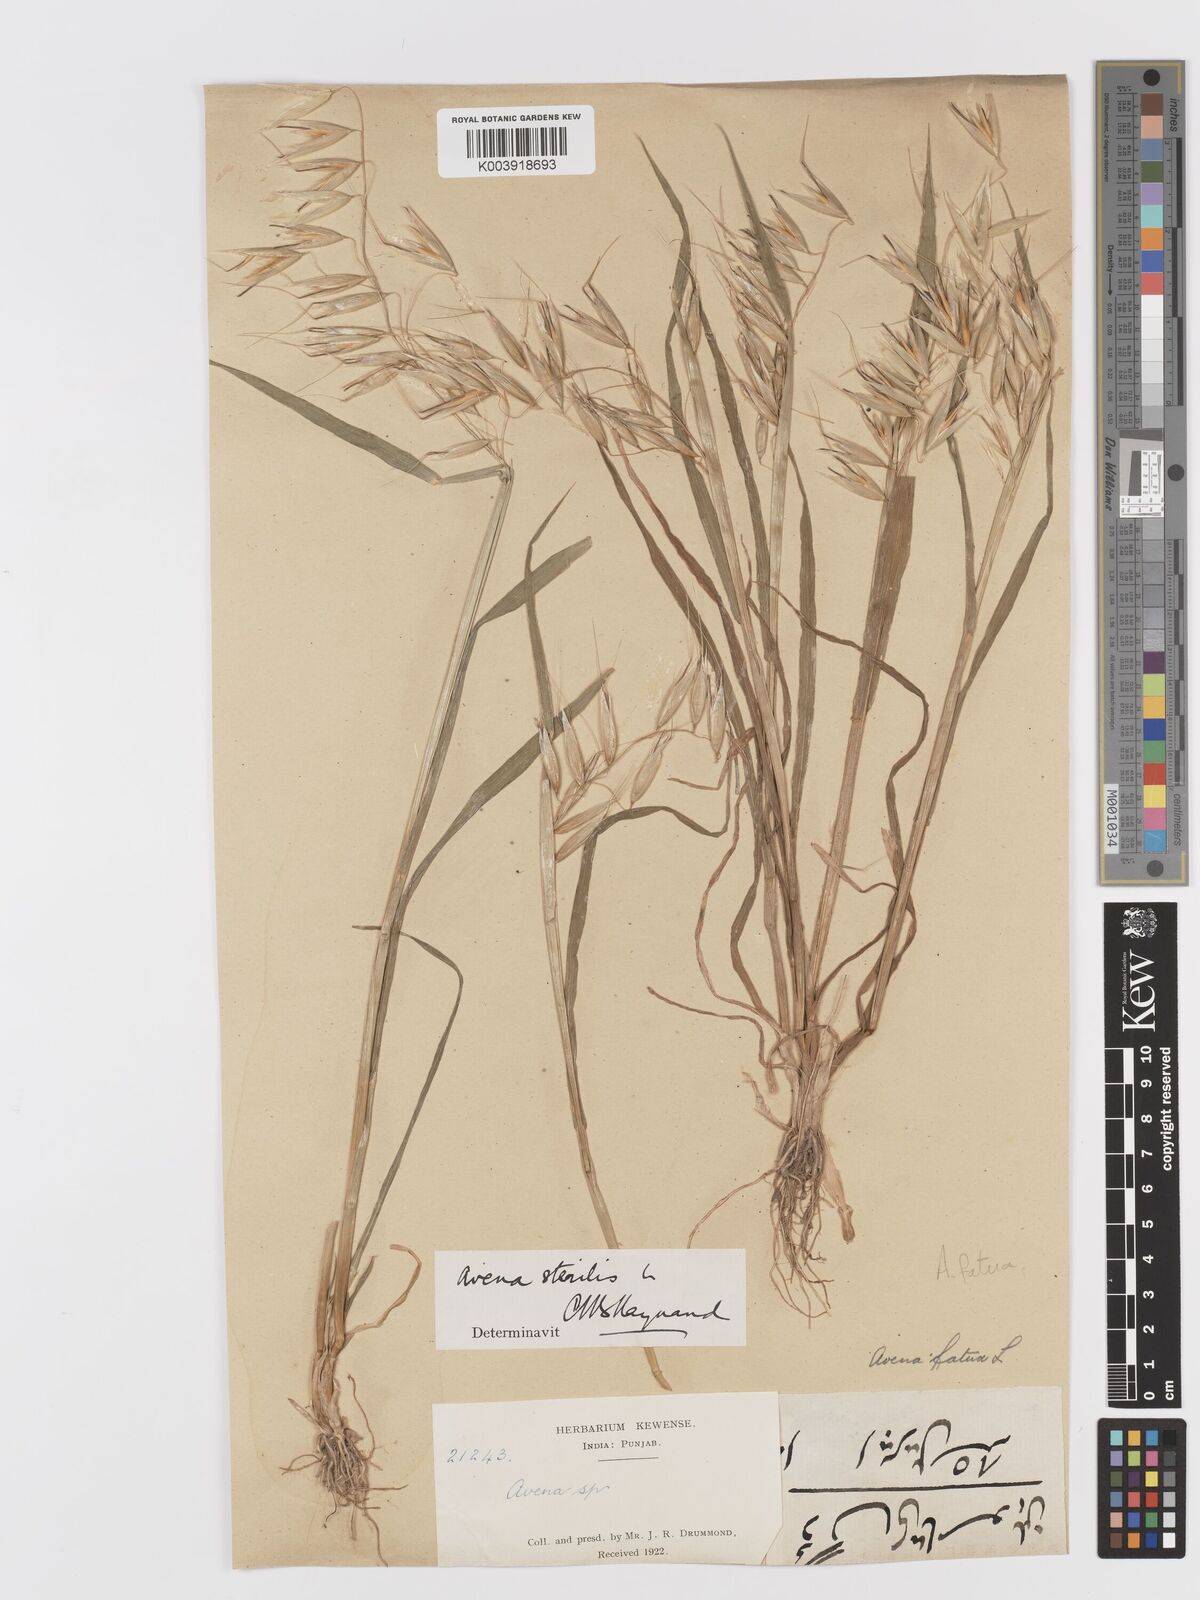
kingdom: Plantae
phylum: Tracheophyta
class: Liliopsida
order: Poales
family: Poaceae
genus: Avena
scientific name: Avena fatua
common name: Wild oat
